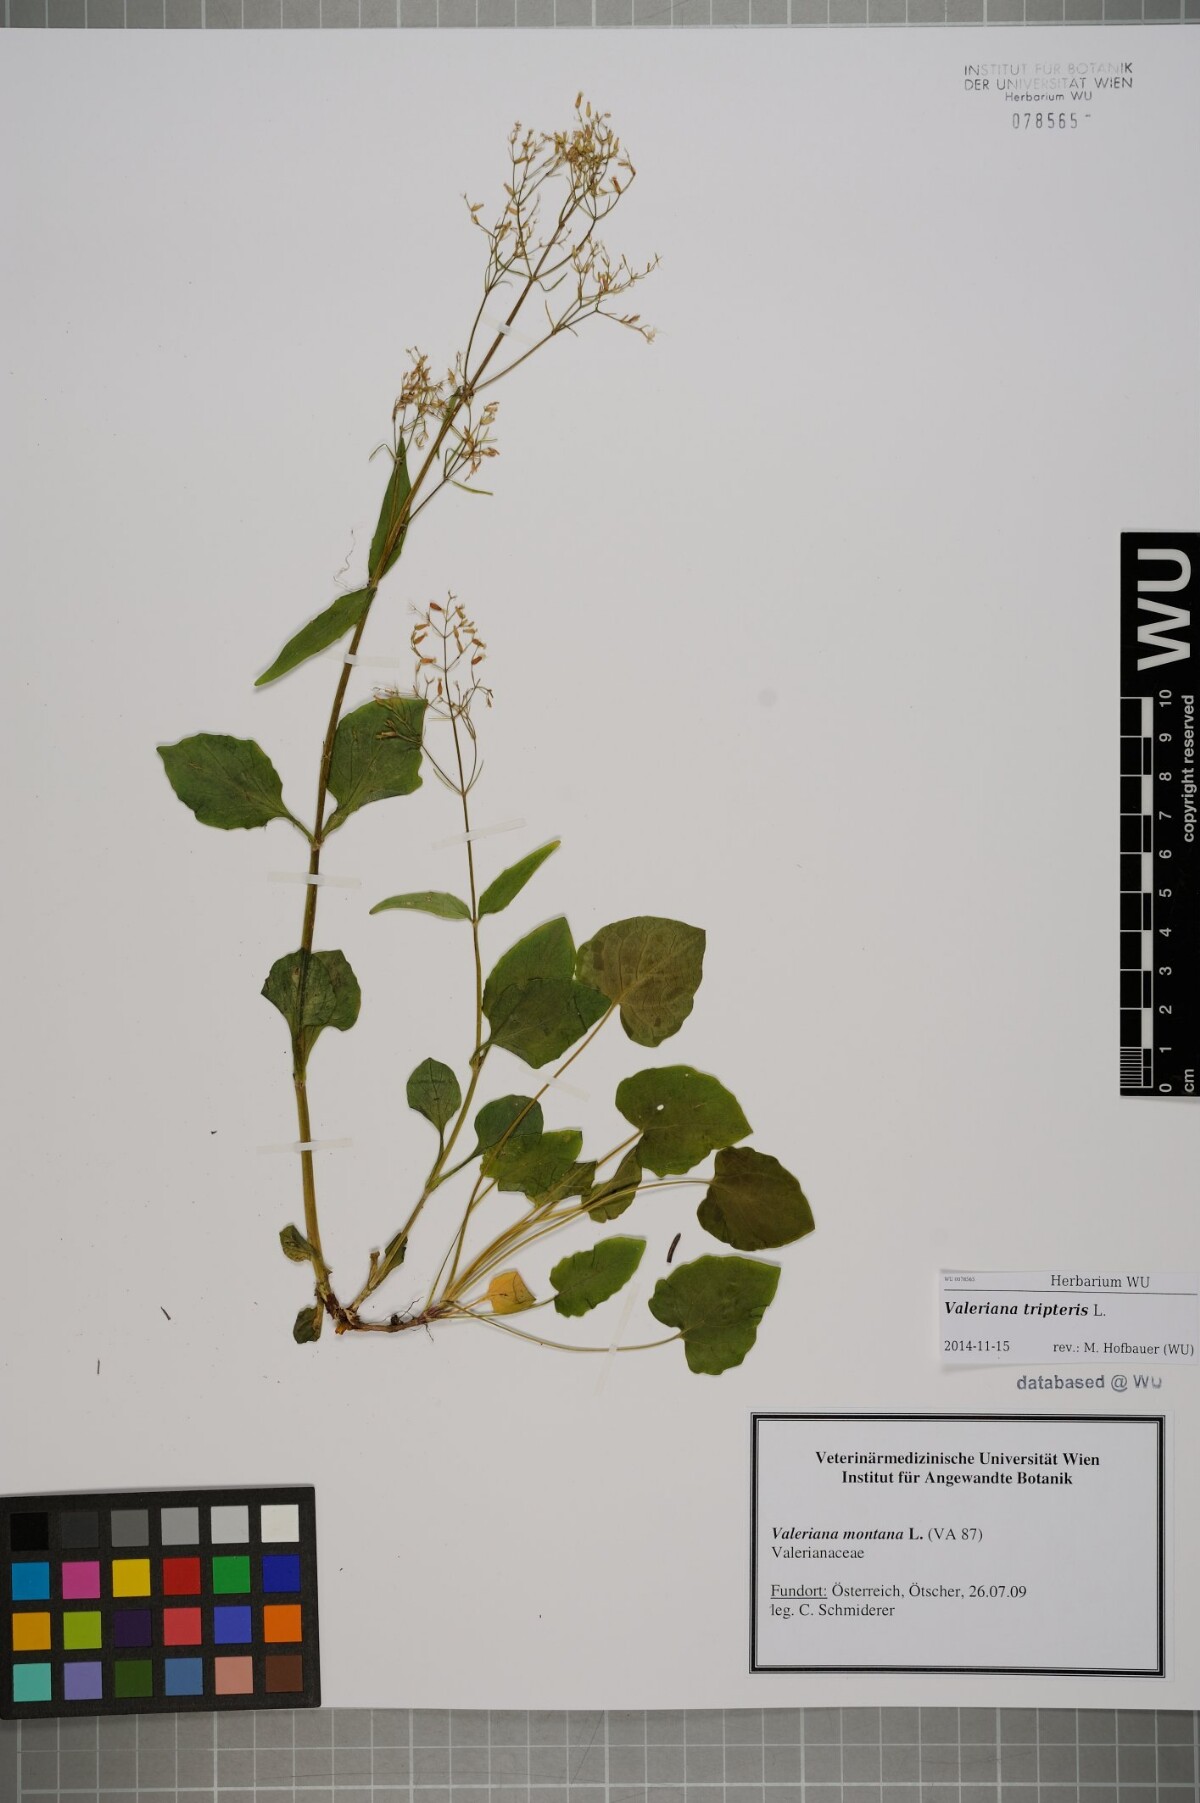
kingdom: Plantae
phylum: Tracheophyta
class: Magnoliopsida
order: Dipsacales
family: Caprifoliaceae
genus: Valeriana
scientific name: Valeriana tripteris
